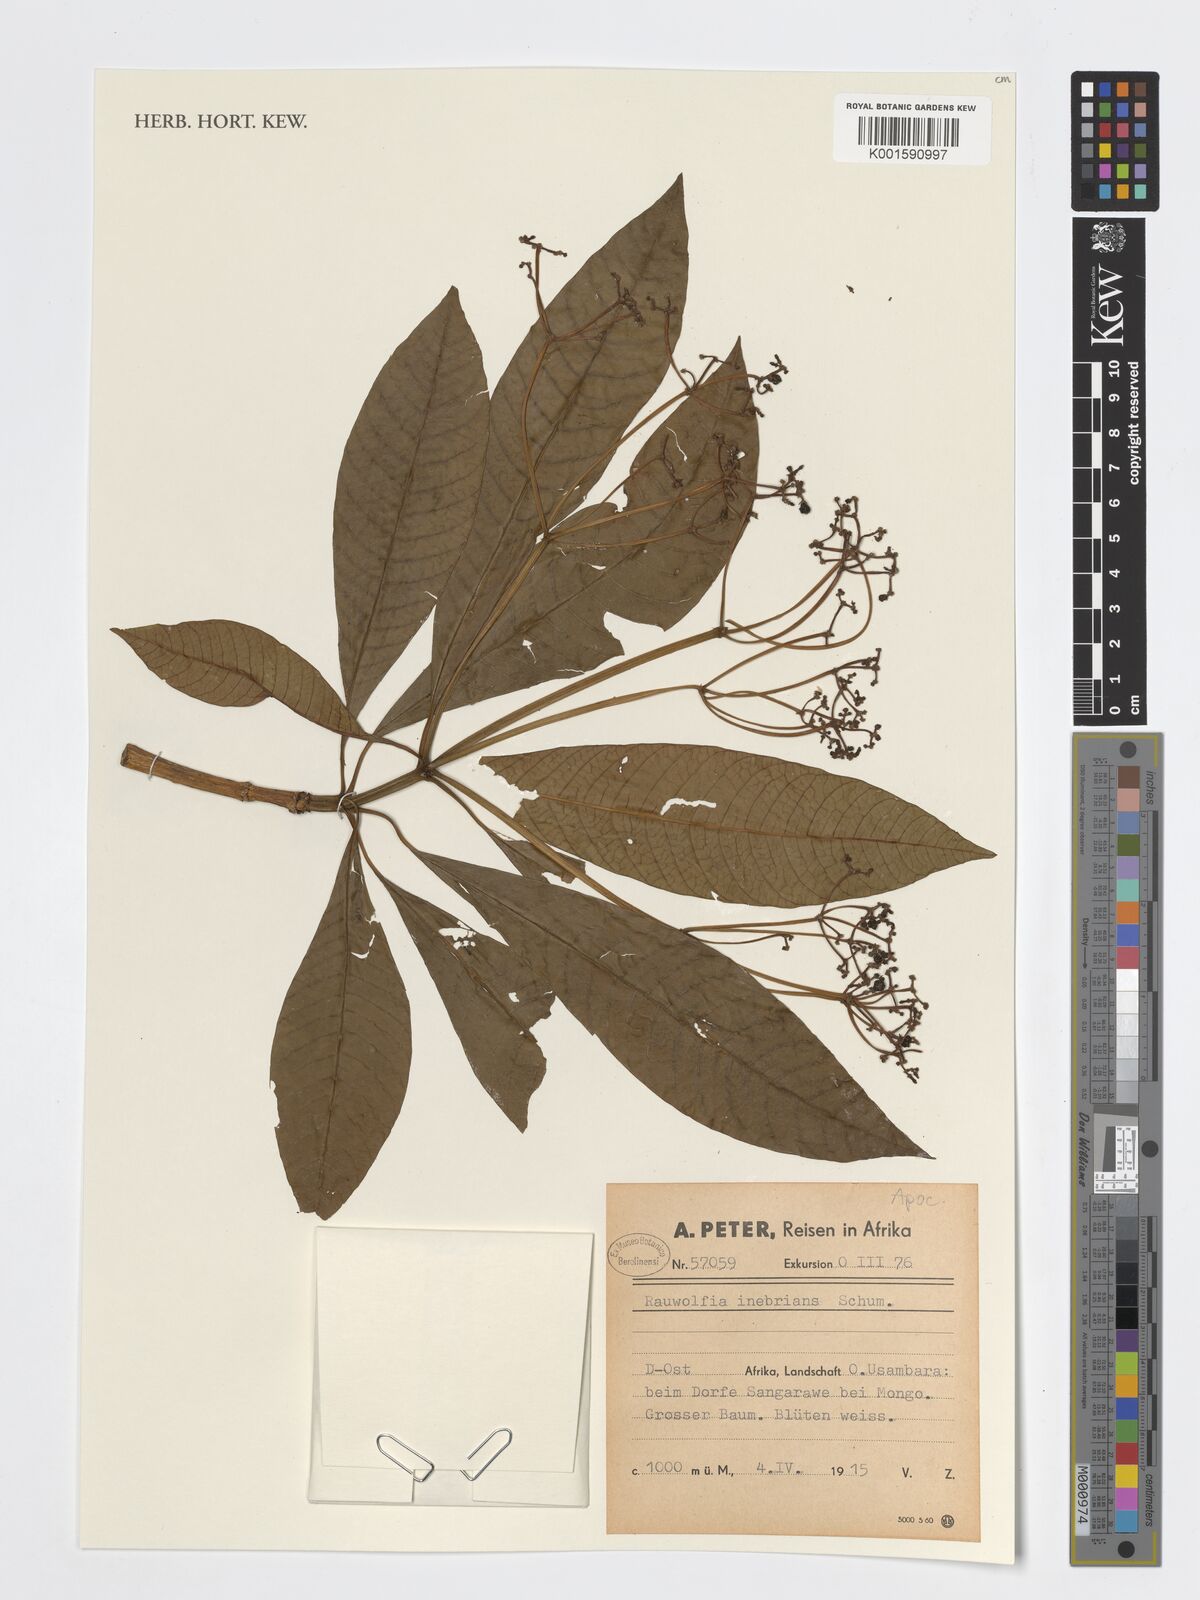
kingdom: Plantae
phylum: Tracheophyta
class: Magnoliopsida
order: Gentianales
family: Apocynaceae
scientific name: Apocynaceae
